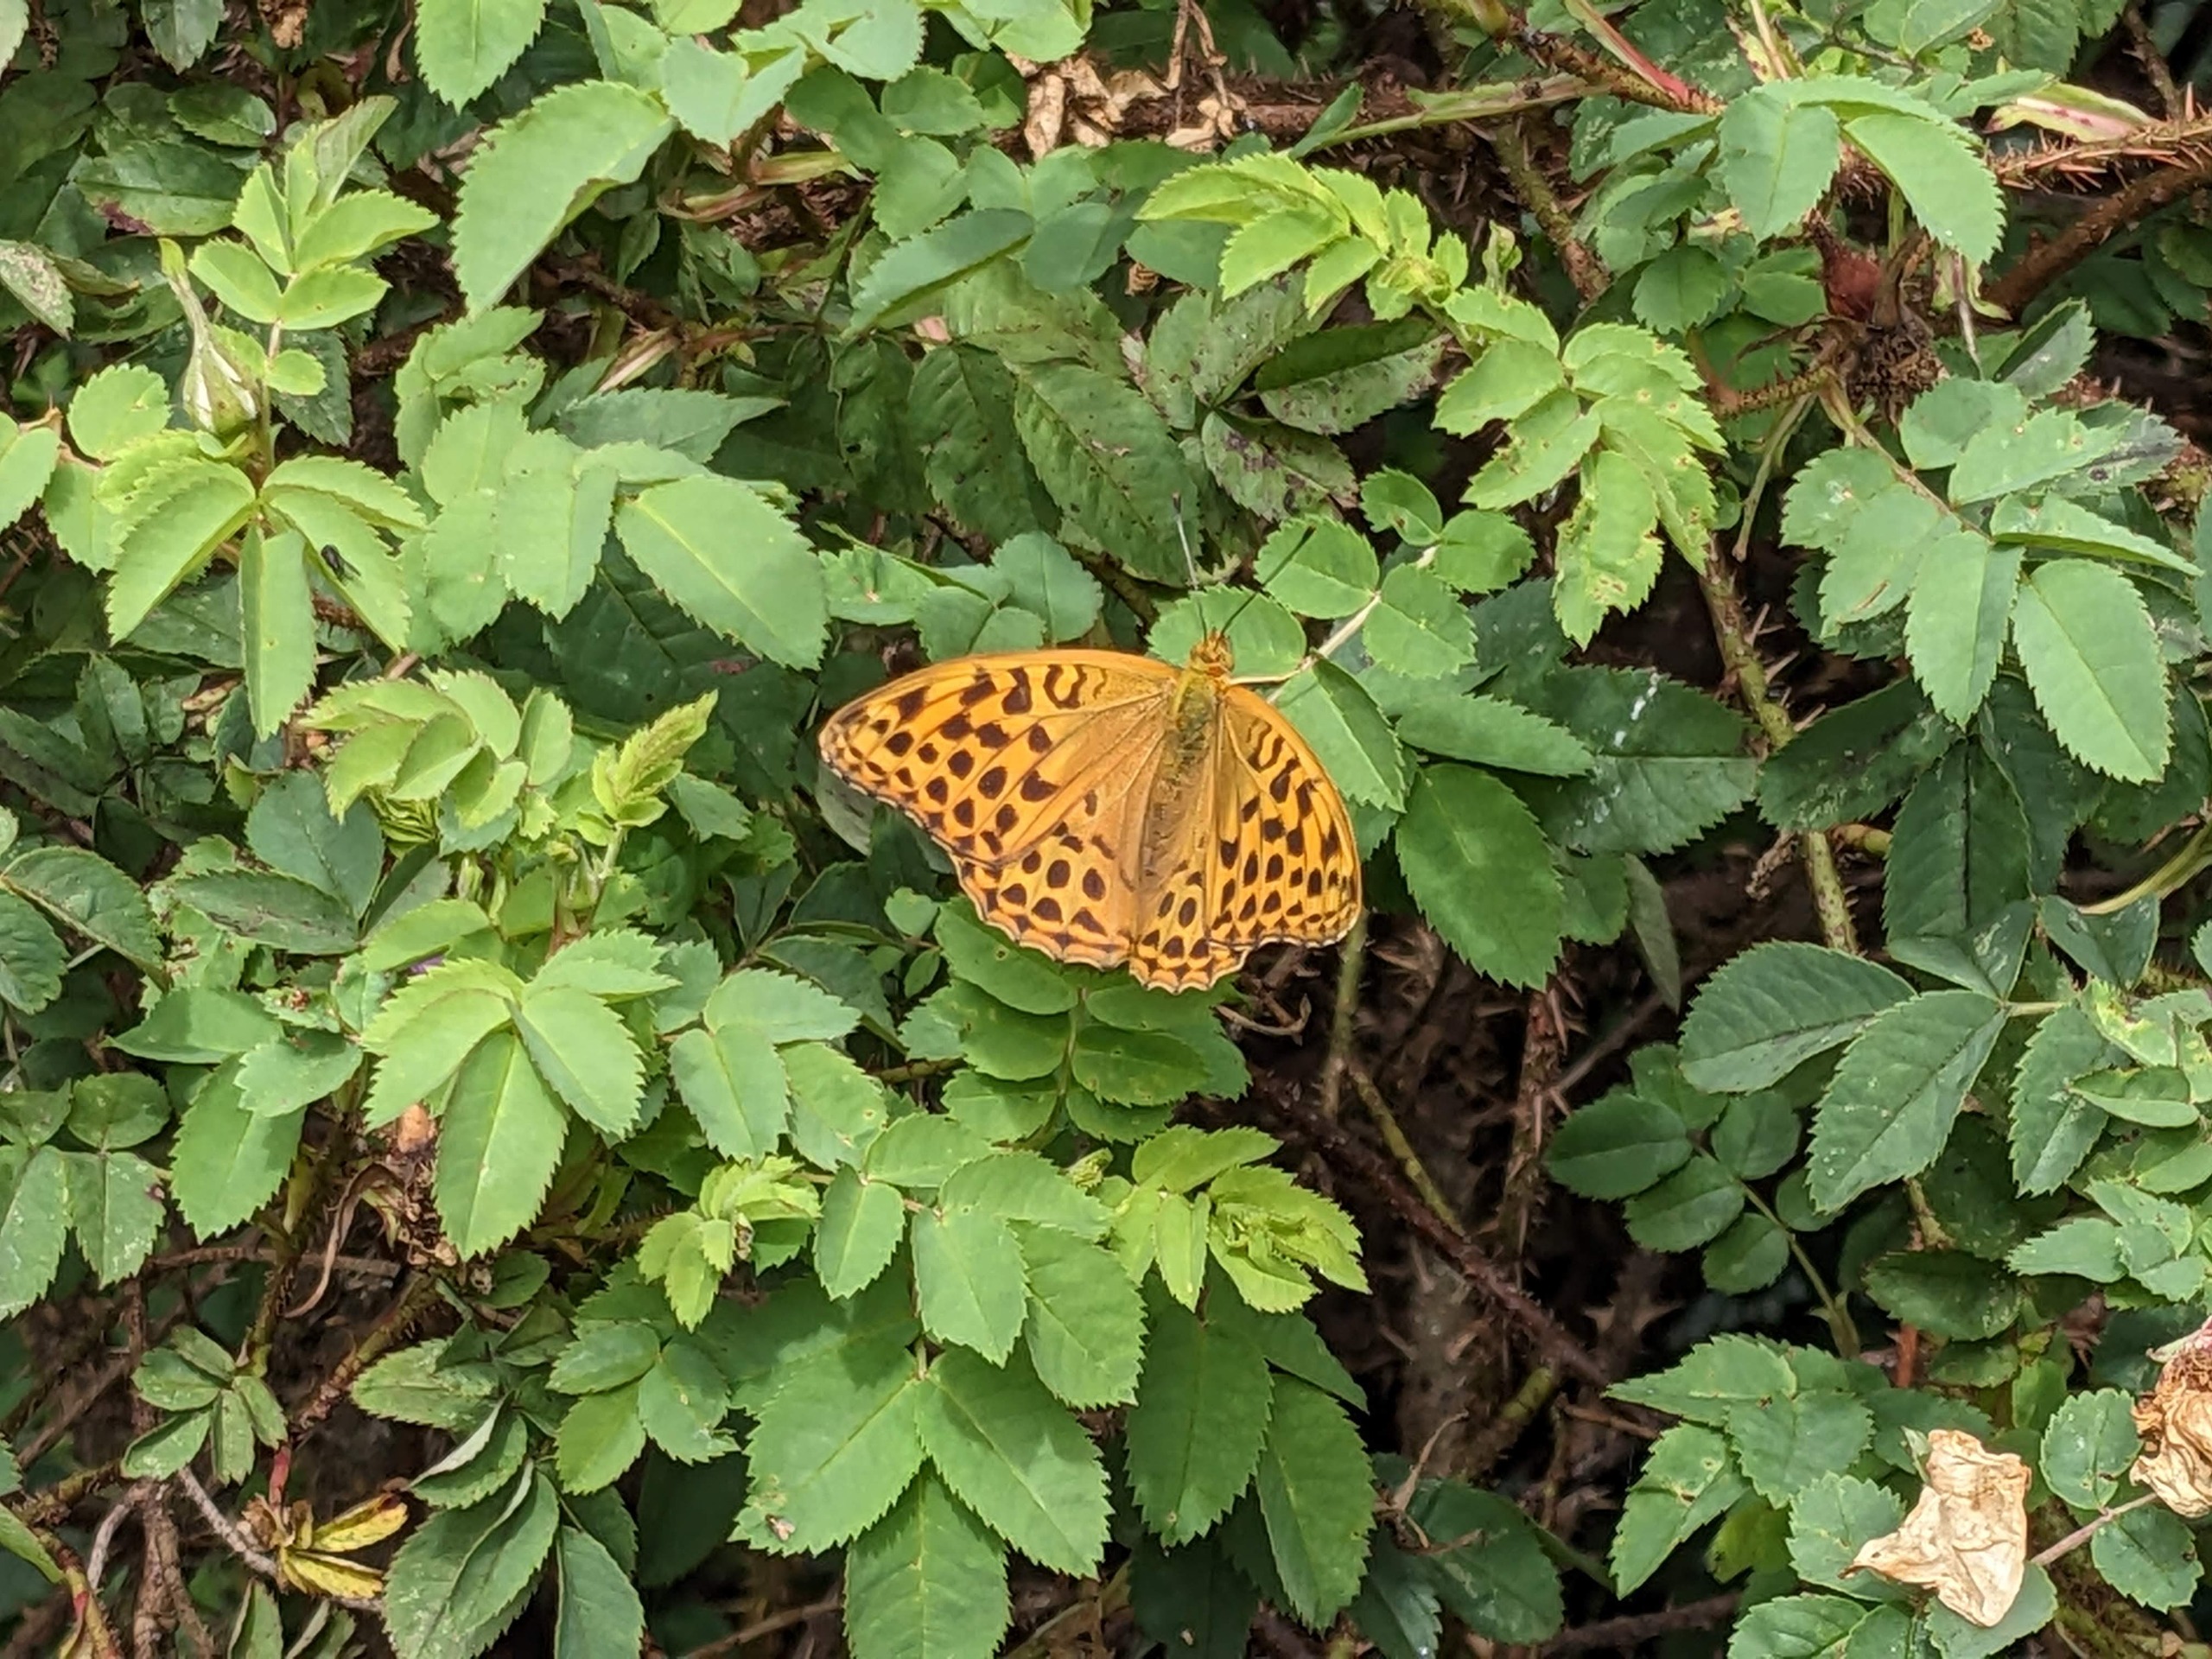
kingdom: Animalia
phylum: Arthropoda
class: Insecta
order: Lepidoptera
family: Nymphalidae
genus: Argynnis
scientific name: Argynnis paphia
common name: Kejserkåbe
